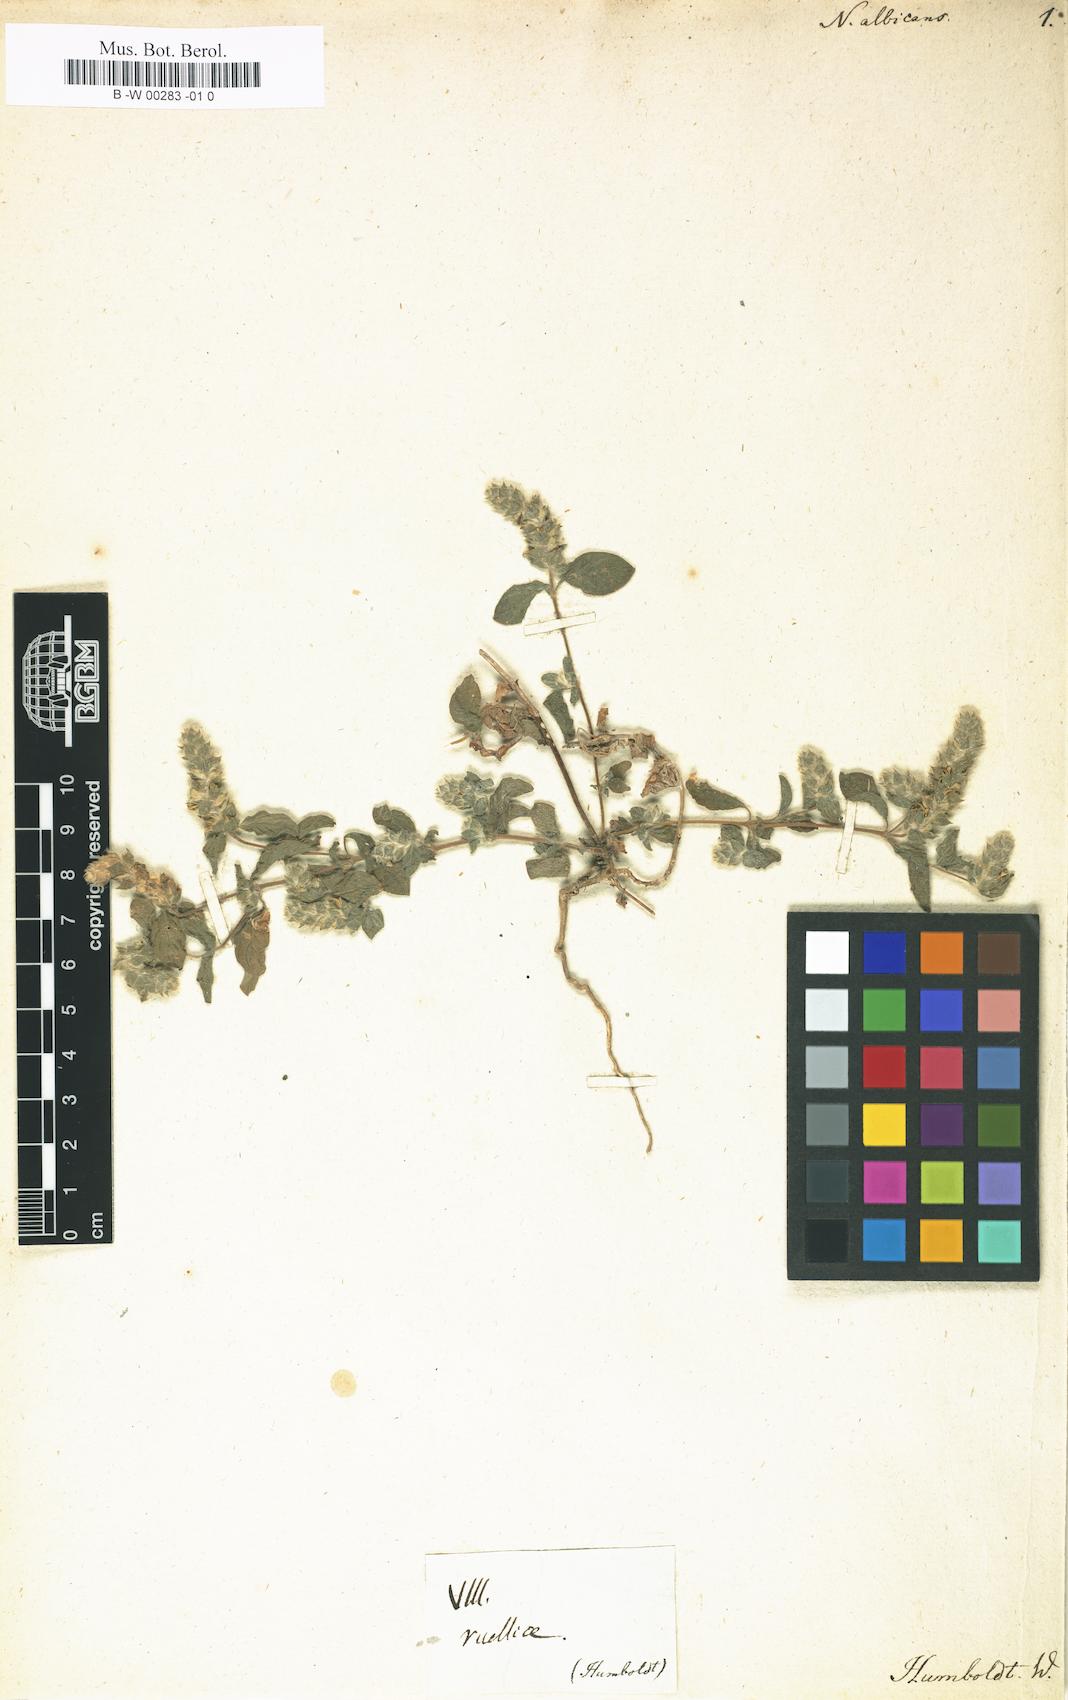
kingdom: Plantae
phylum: Tracheophyta
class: Magnoliopsida
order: Lamiales
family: Acanthaceae
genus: Nelsonia
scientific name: Nelsonia canescens
